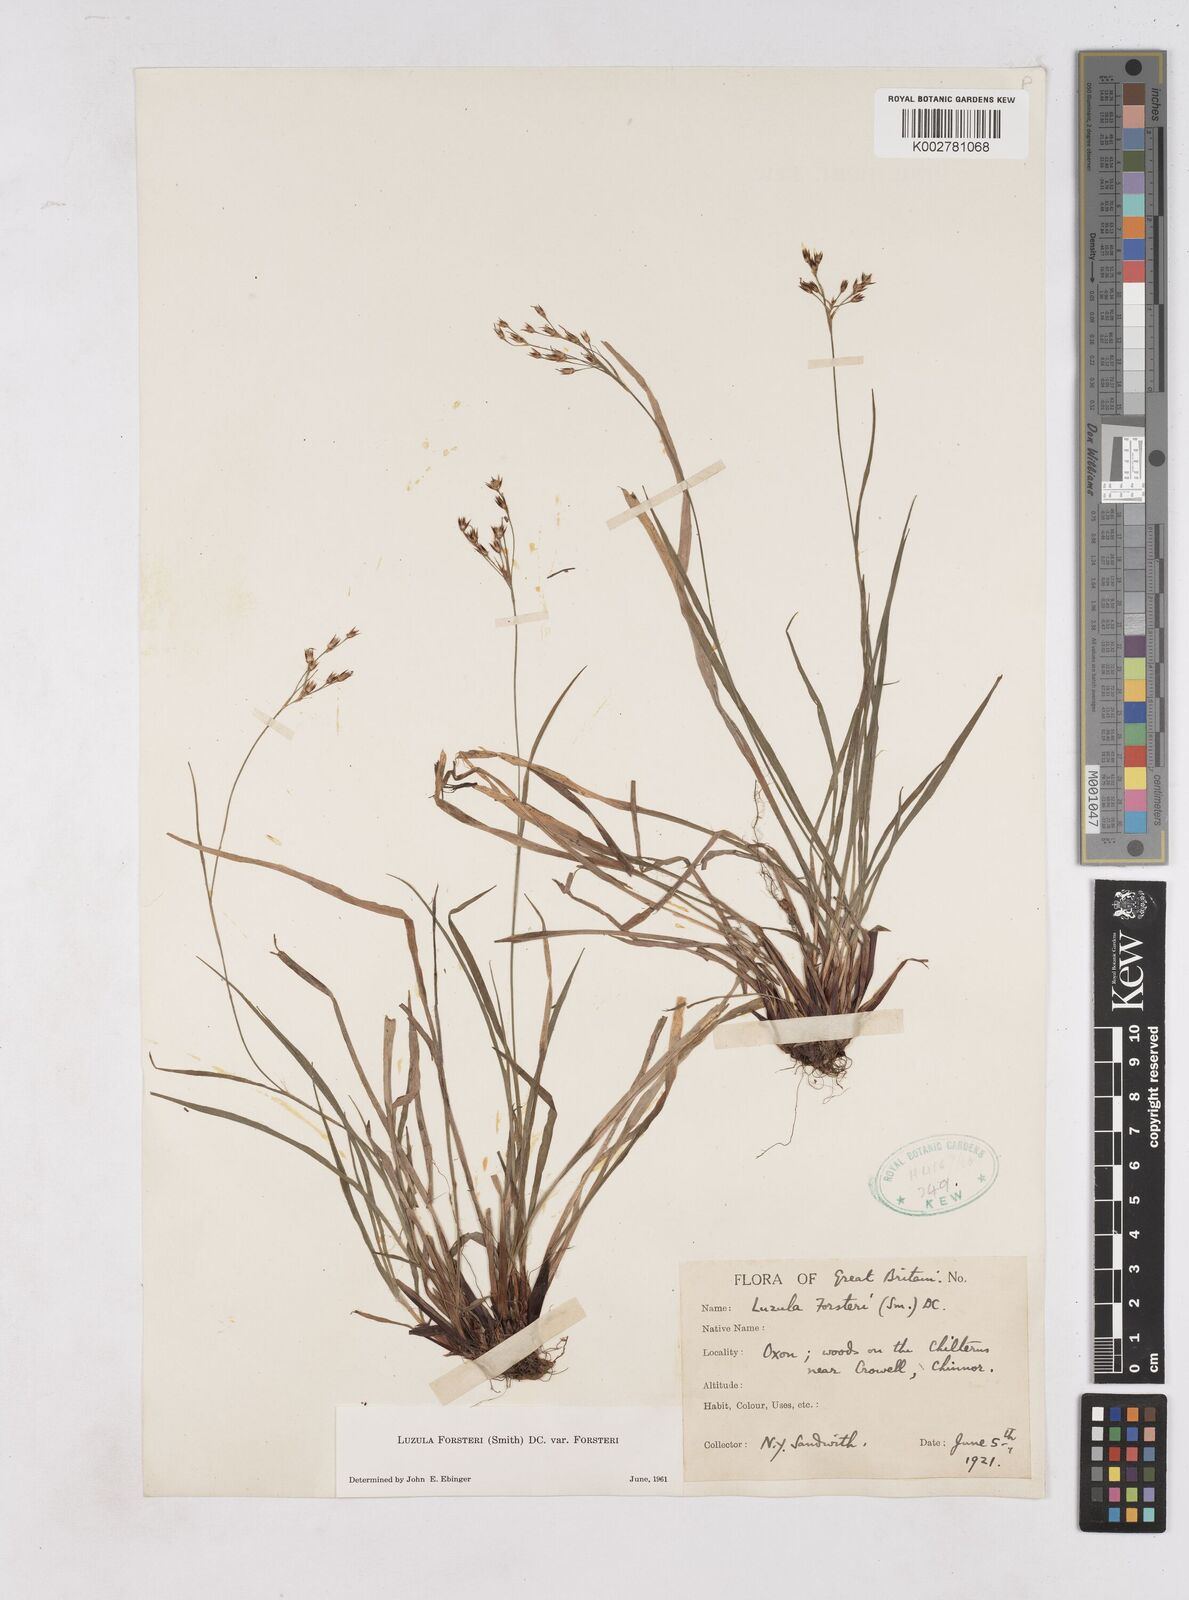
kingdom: Plantae
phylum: Tracheophyta
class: Liliopsida
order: Poales
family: Juncaceae
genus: Luzula
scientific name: Luzula forsteri
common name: Southern wood-rush
